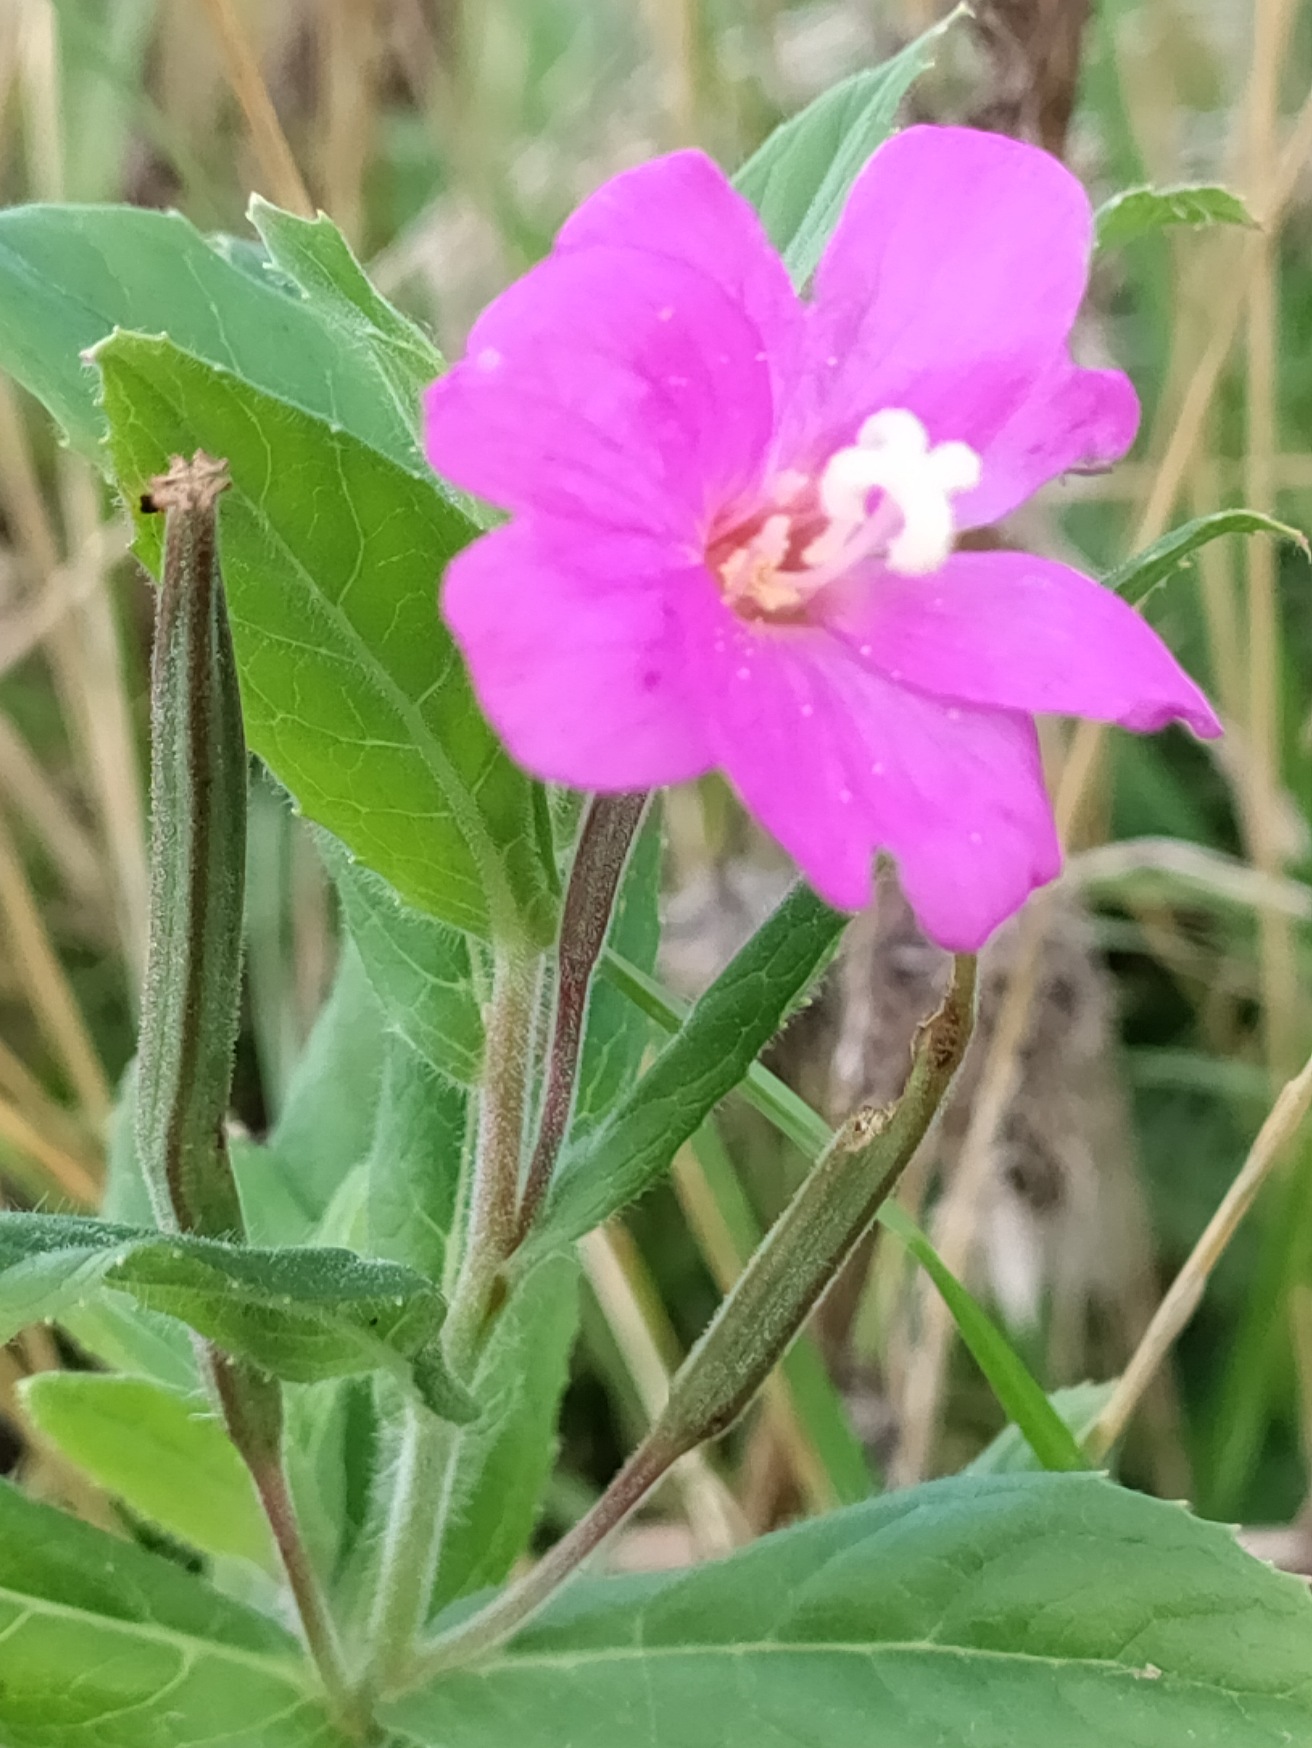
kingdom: Plantae
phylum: Tracheophyta
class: Magnoliopsida
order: Myrtales
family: Onagraceae
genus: Epilobium
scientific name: Epilobium hirsutum
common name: Lådden dueurt
